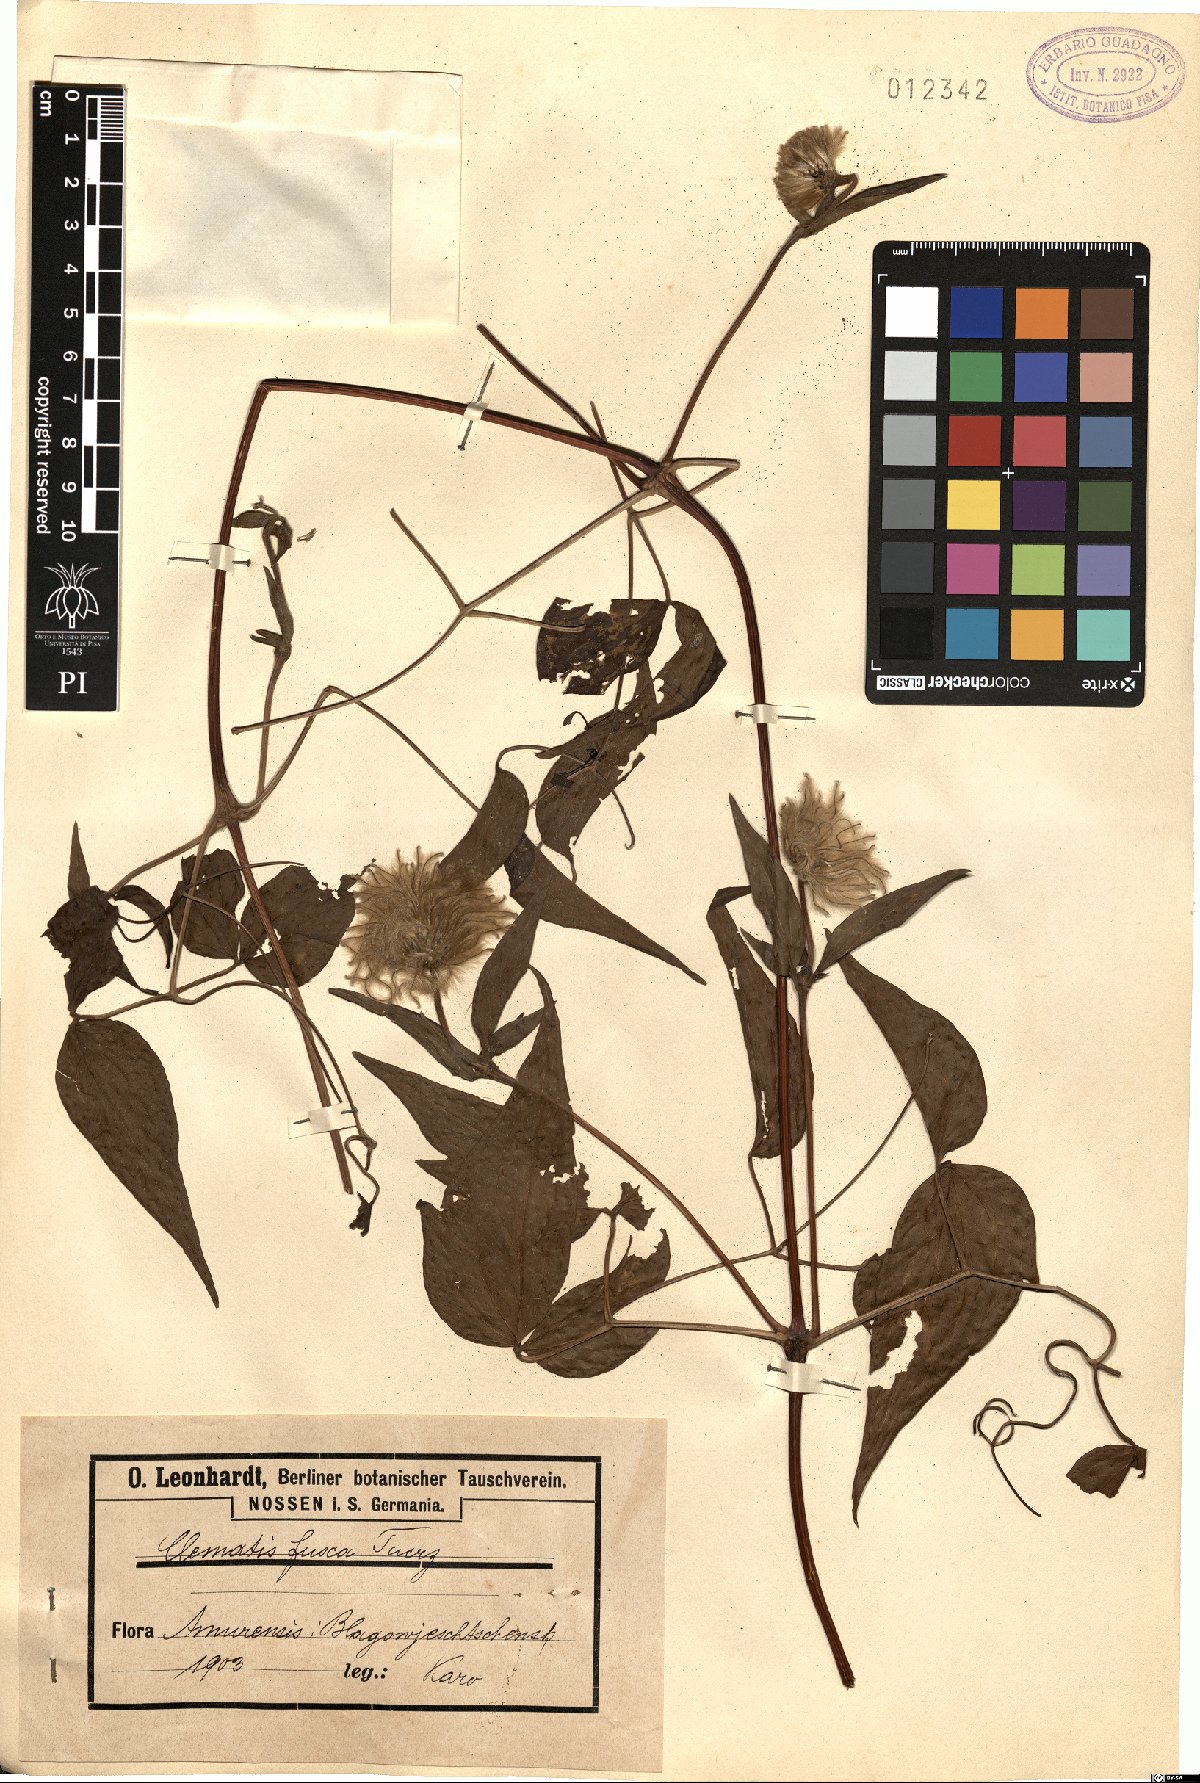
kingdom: Plantae
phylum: Tracheophyta
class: Magnoliopsida
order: Ranunculales
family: Ranunculaceae
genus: Clematis
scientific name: Clematis fusca
